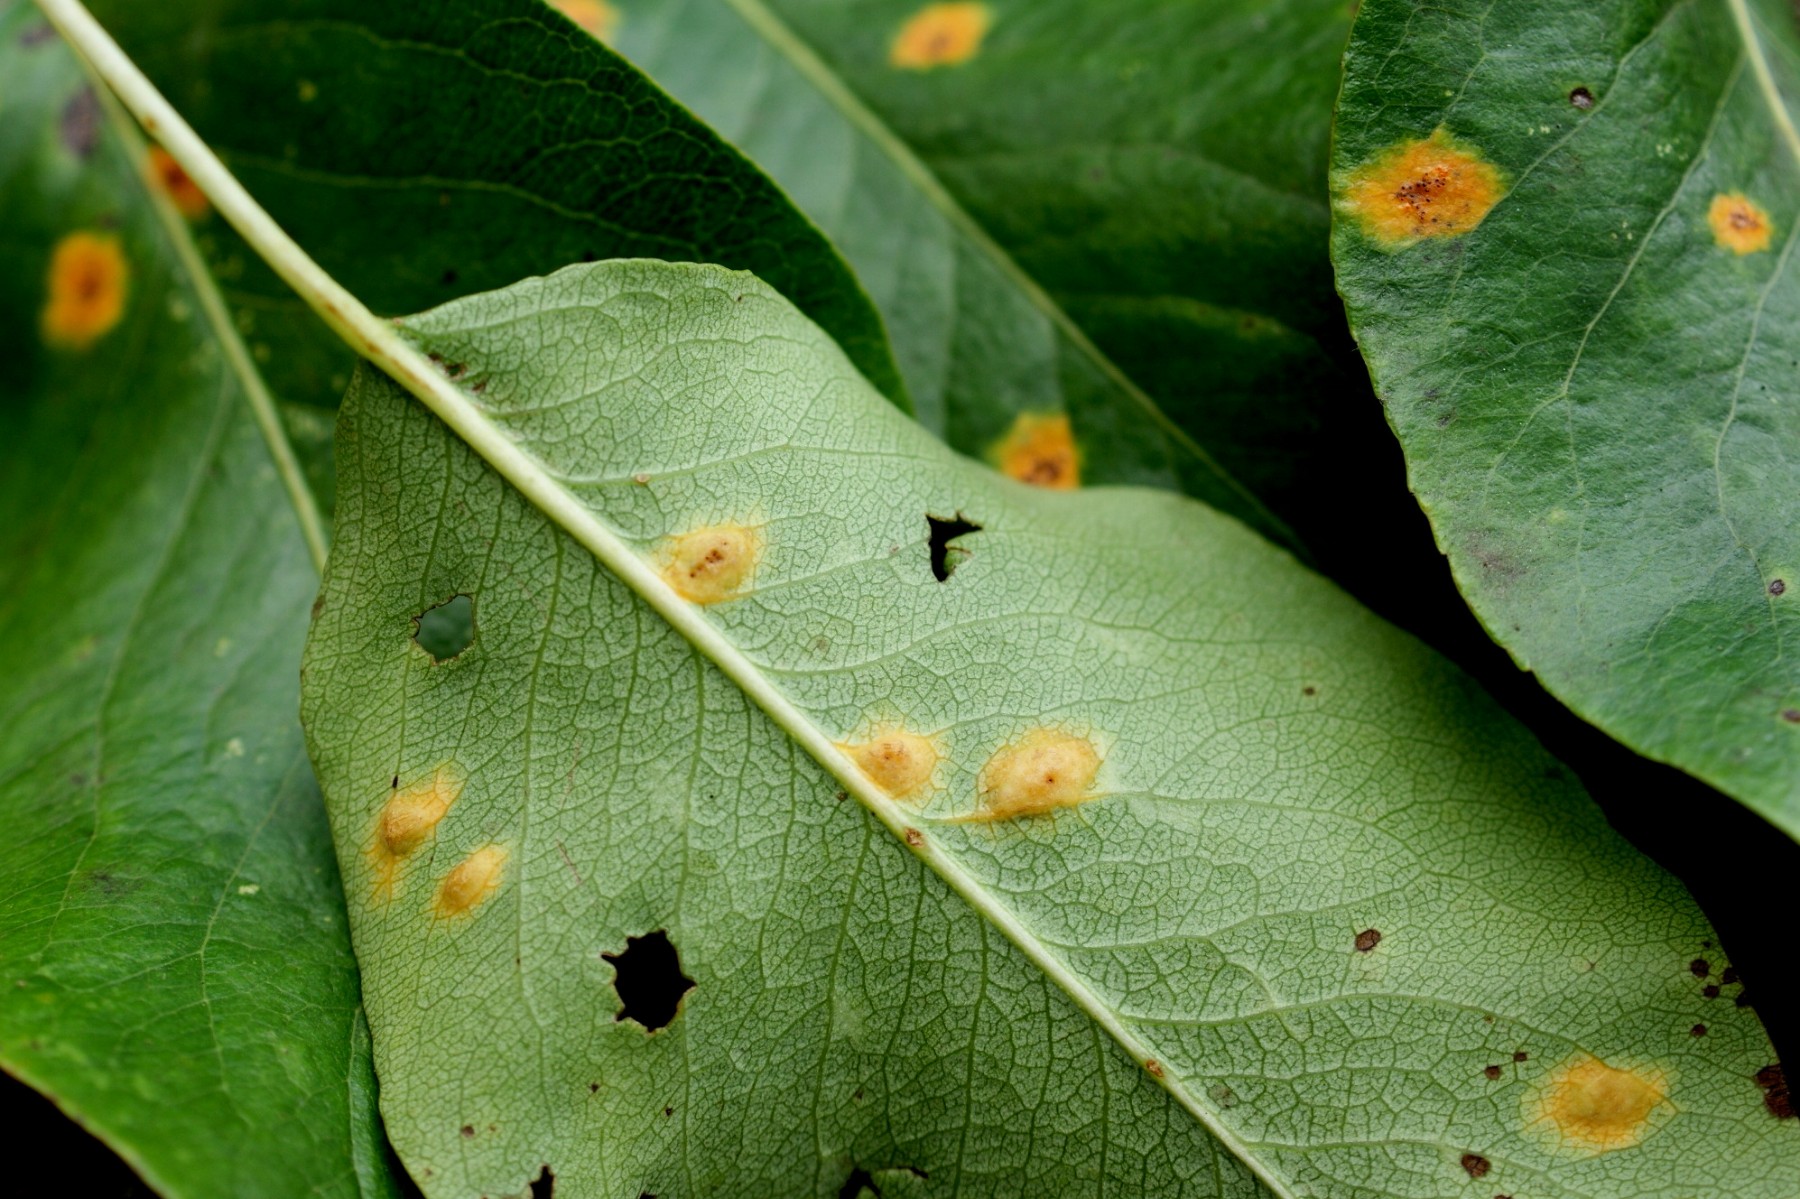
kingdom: Fungi
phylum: Basidiomycota
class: Pucciniomycetes
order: Pucciniales
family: Gymnosporangiaceae
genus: Gymnosporangium
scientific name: Gymnosporangium sabinae
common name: pæregitter-bævrerust
